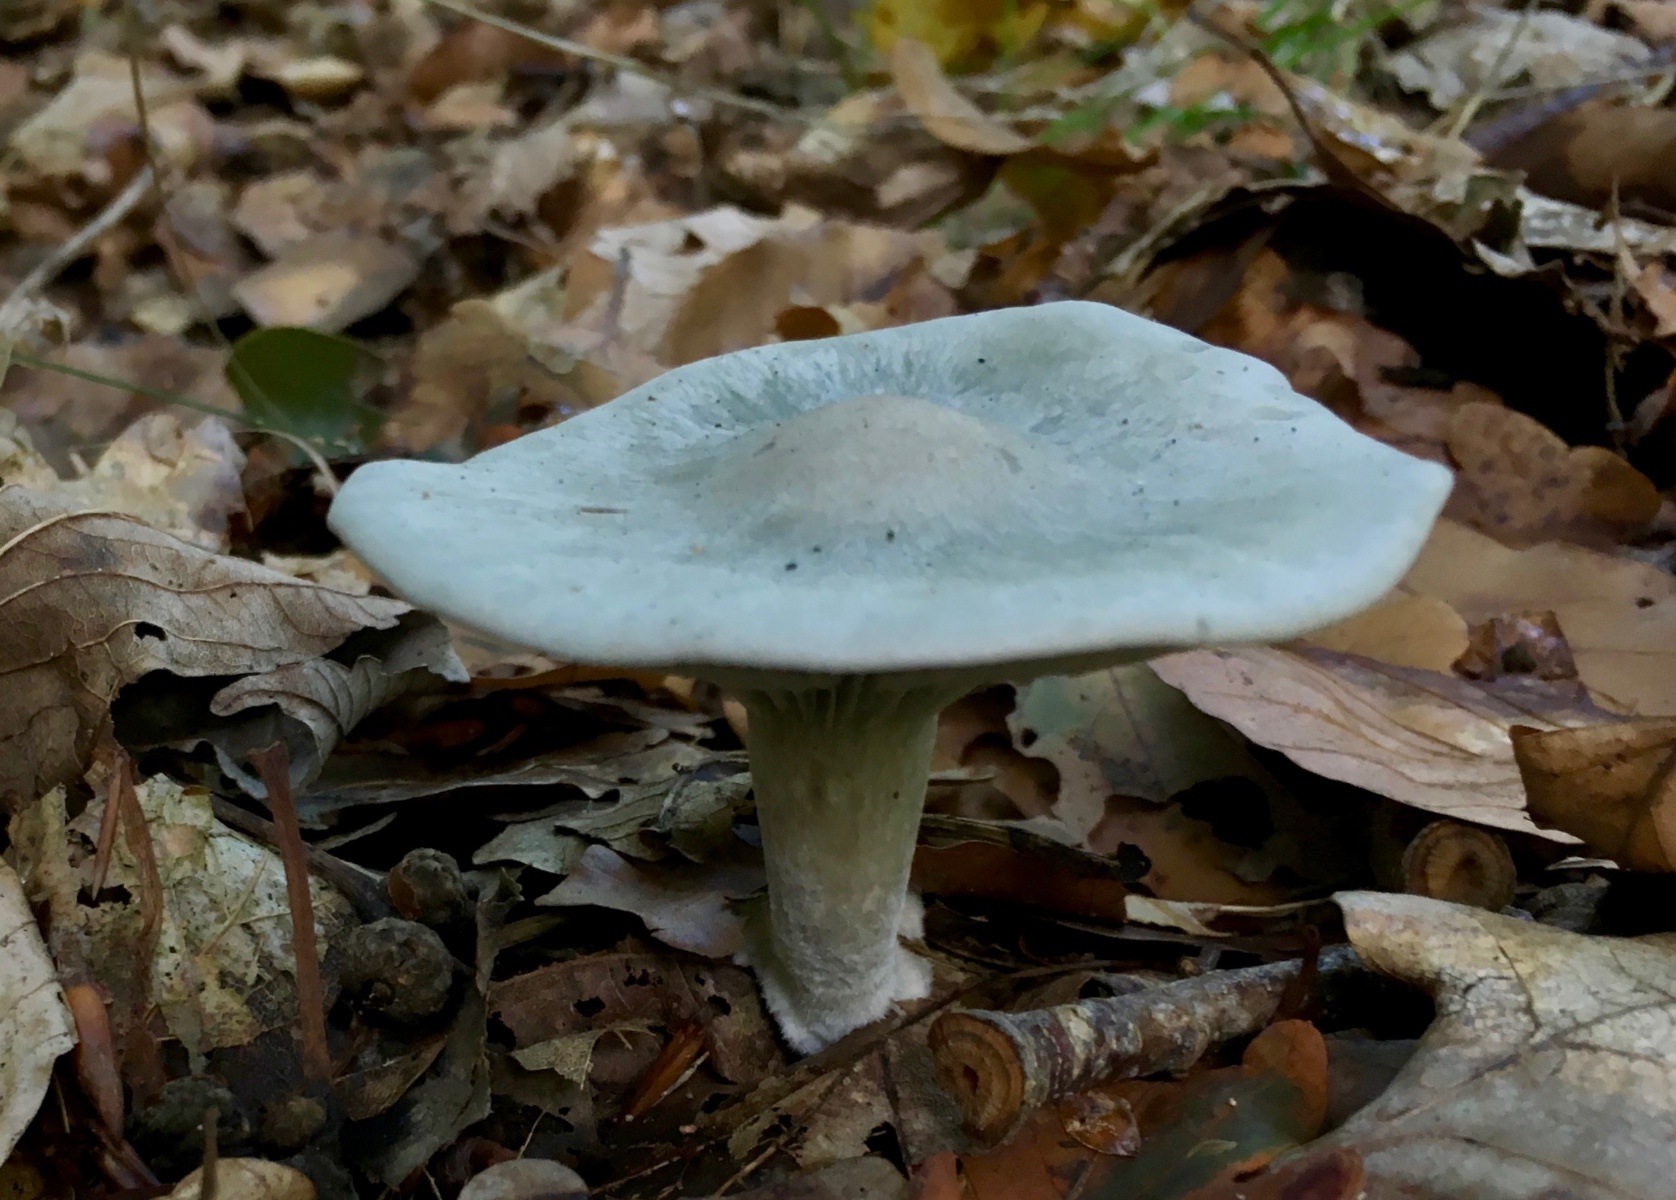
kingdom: Fungi
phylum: Basidiomycota
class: Agaricomycetes
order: Agaricales
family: Tricholomataceae
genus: Clitocybe
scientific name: Clitocybe odora
